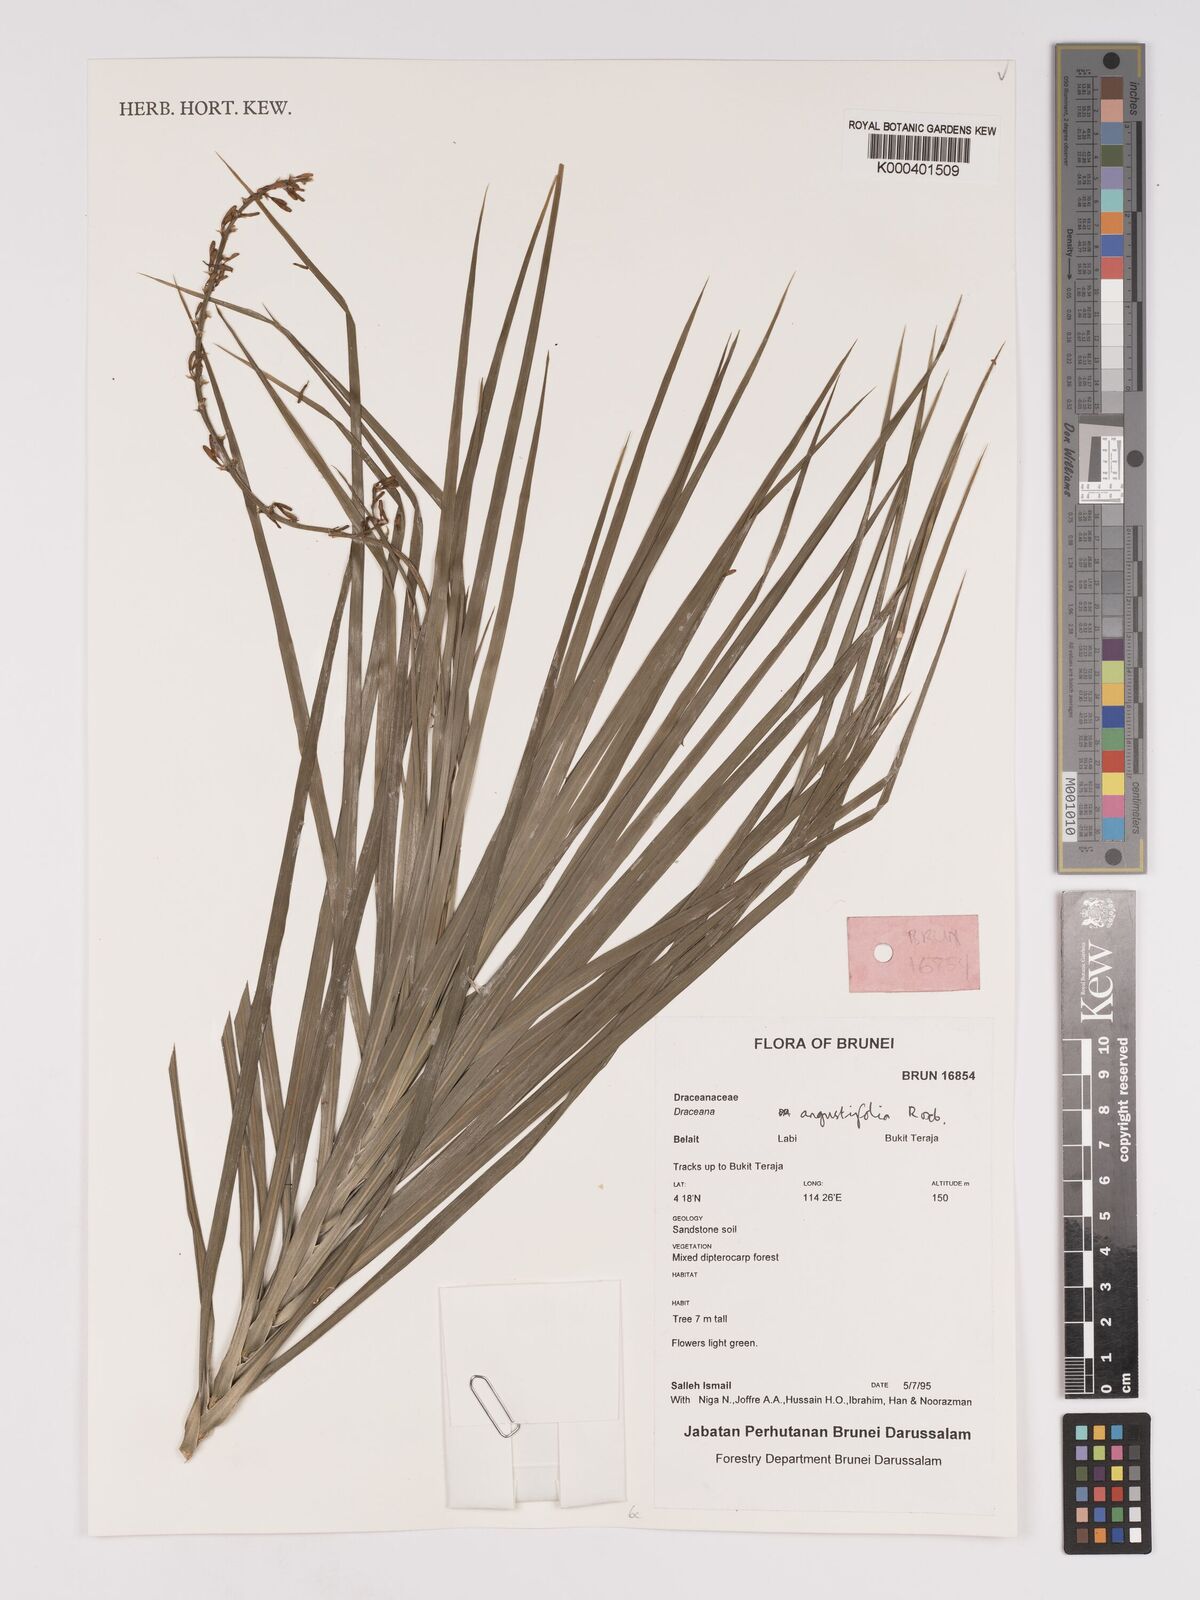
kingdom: Plantae
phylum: Tracheophyta
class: Liliopsida
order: Asparagales
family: Asparagaceae
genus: Dracaena
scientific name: Dracaena angustifolia
